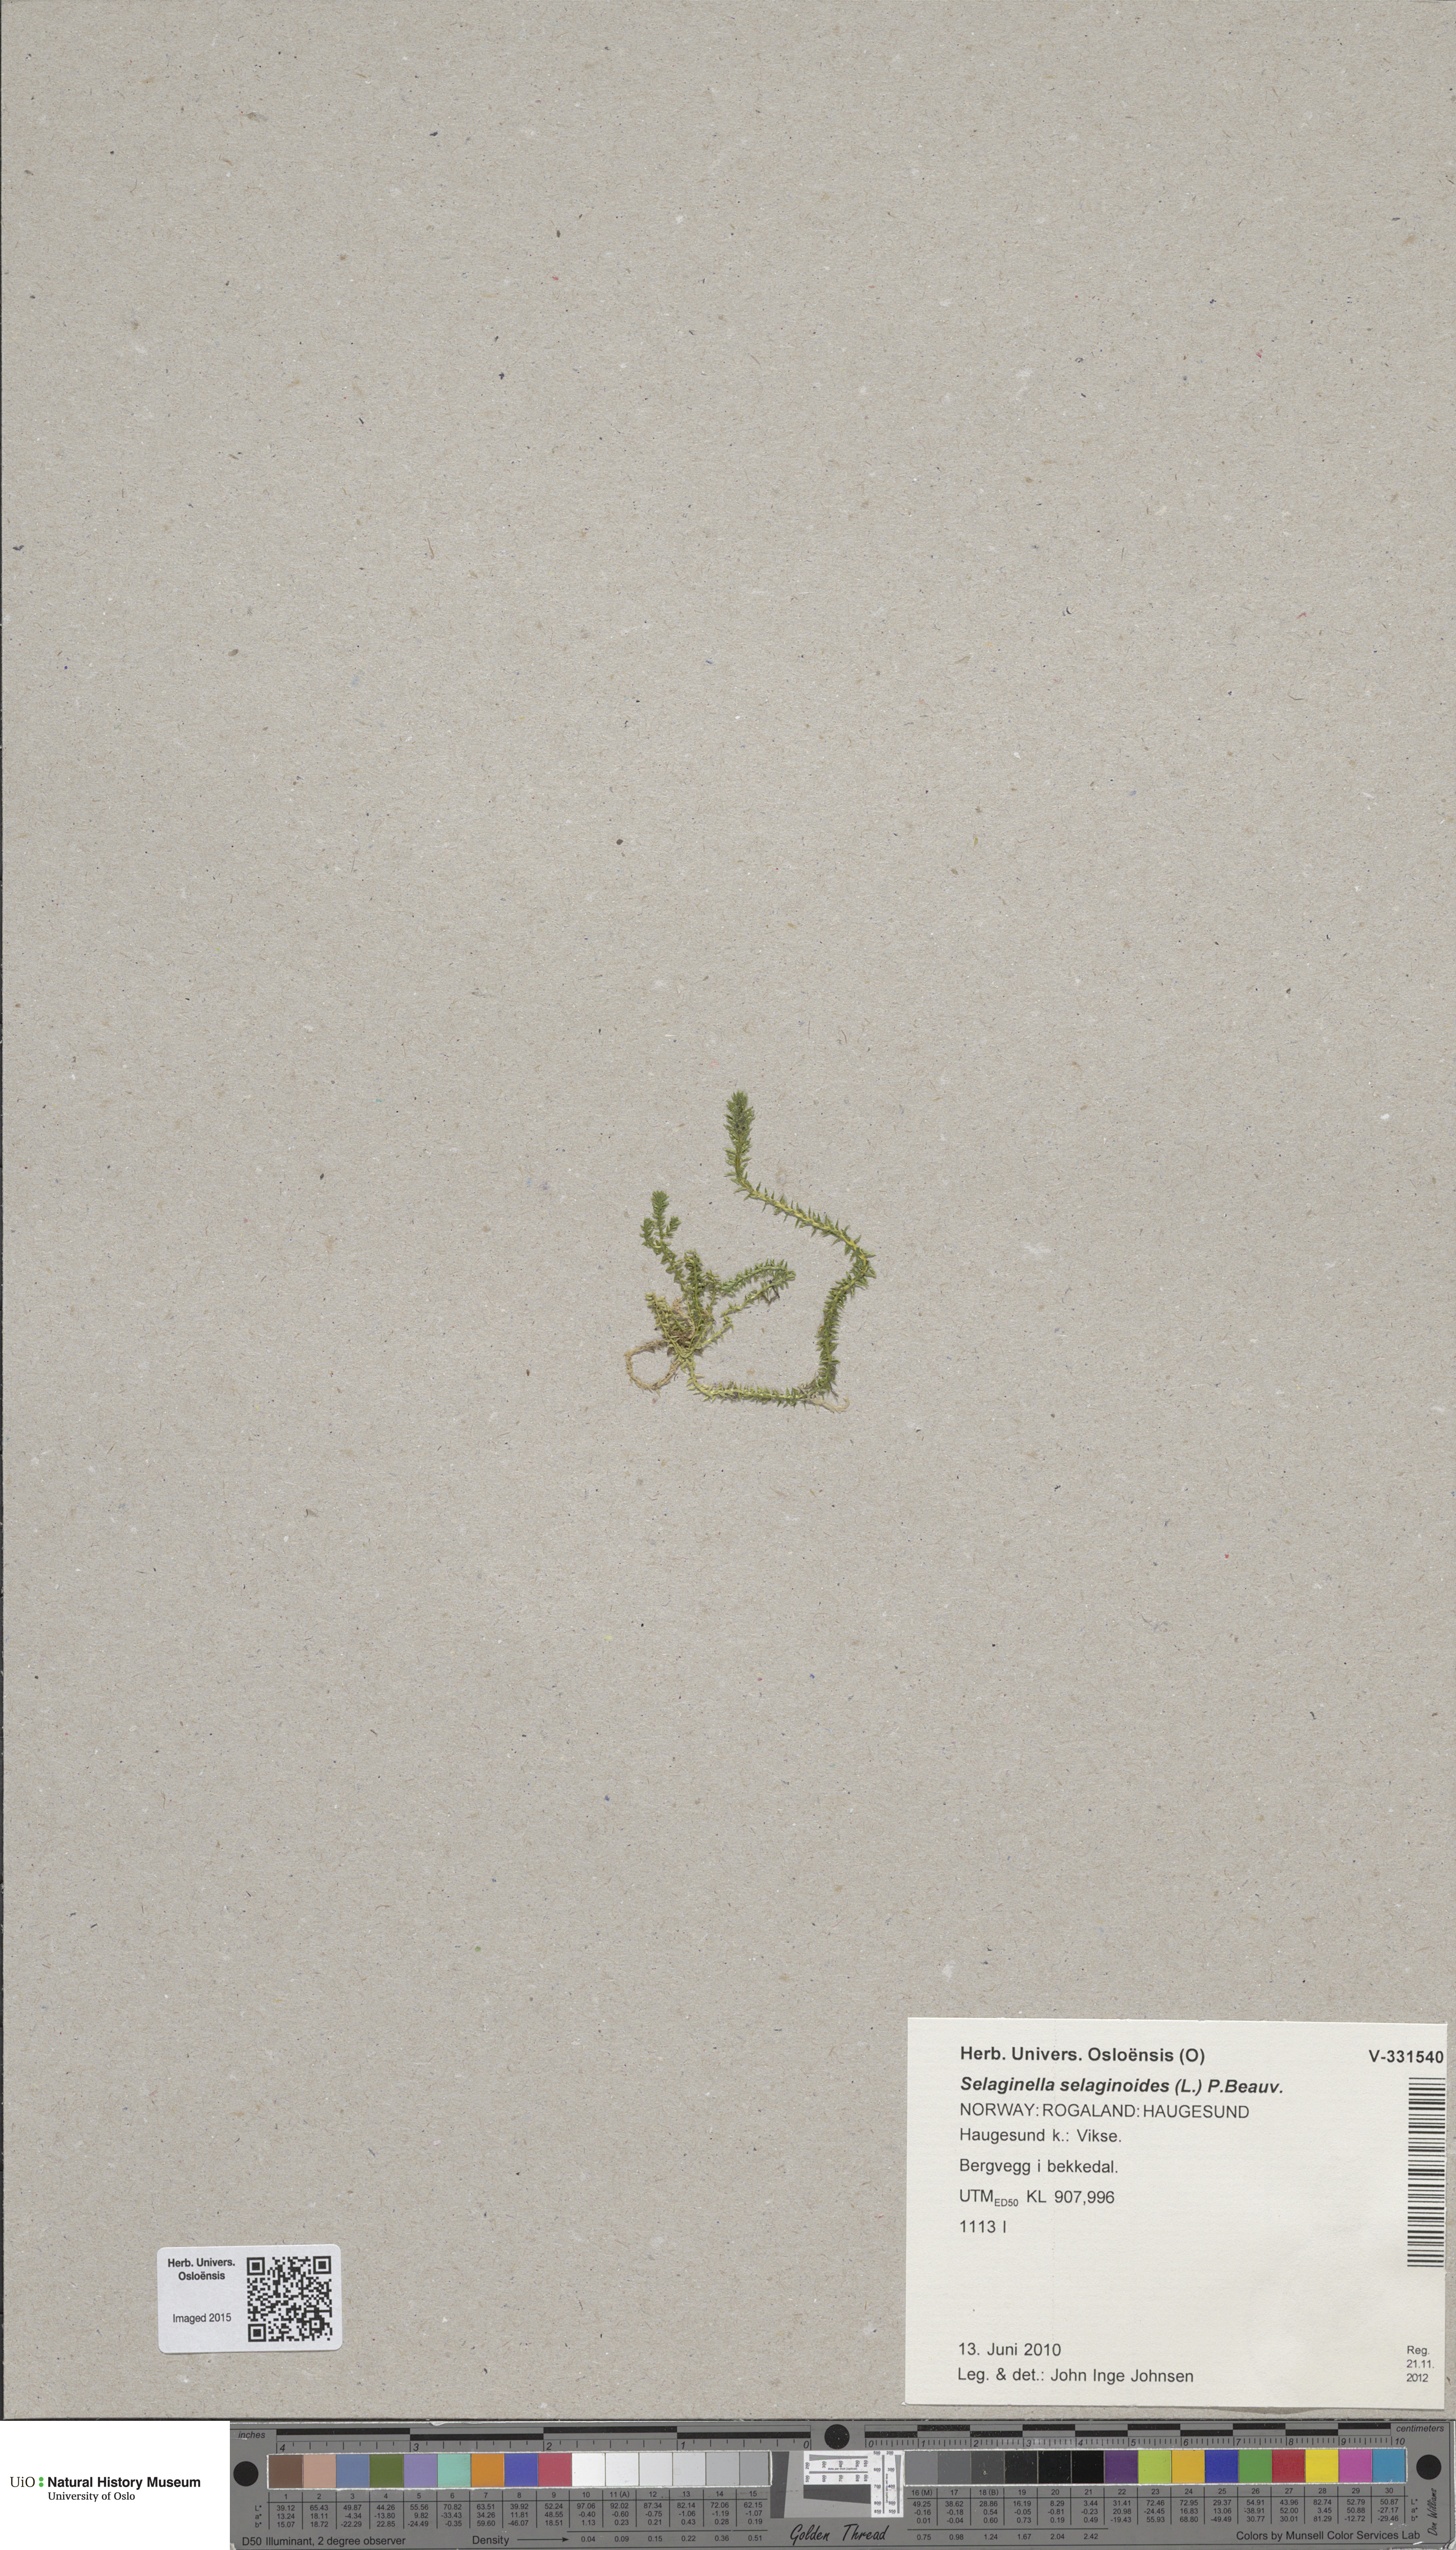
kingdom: Plantae
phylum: Tracheophyta
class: Lycopodiopsida
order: Selaginellales
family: Selaginellaceae
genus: Selaginella
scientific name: Selaginella selaginoides
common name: Prickly mountain-moss
